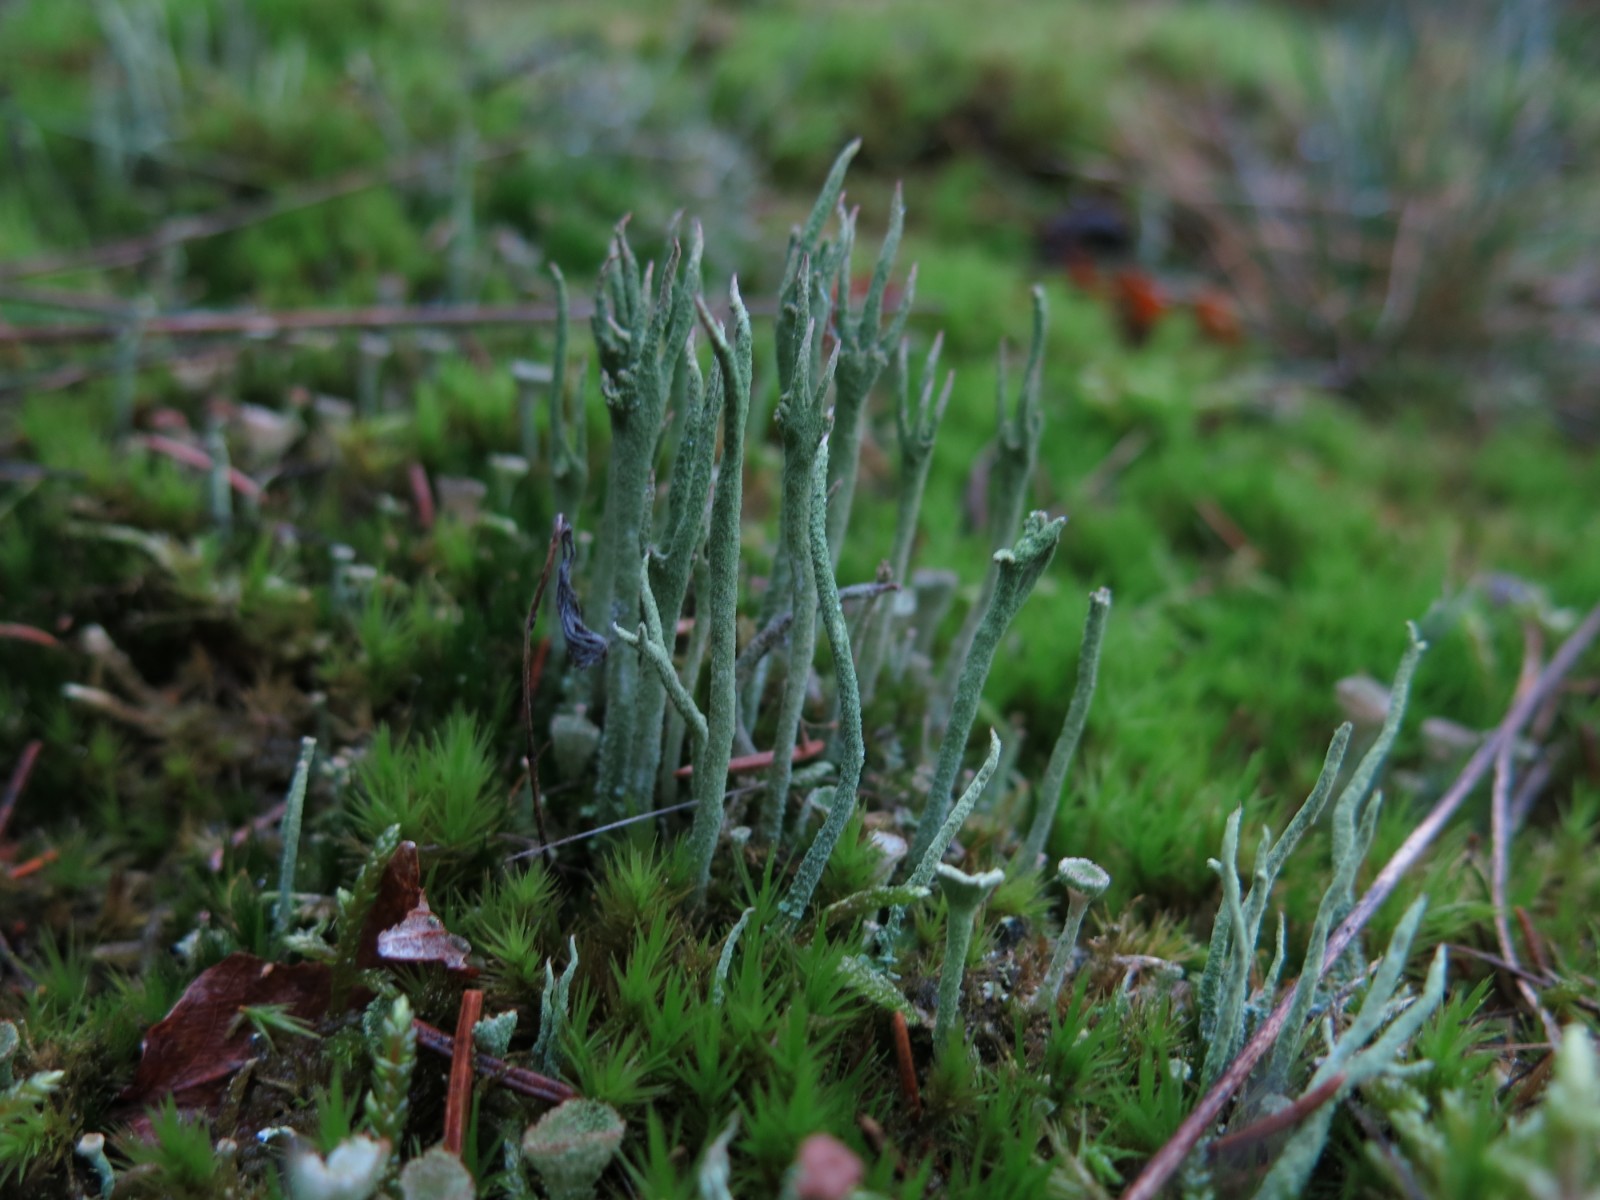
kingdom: Fungi
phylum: Ascomycota
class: Lecanoromycetes
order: Lecanorales
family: Cladoniaceae
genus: Cladonia
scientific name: Cladonia subulata
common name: spids bægerlav
